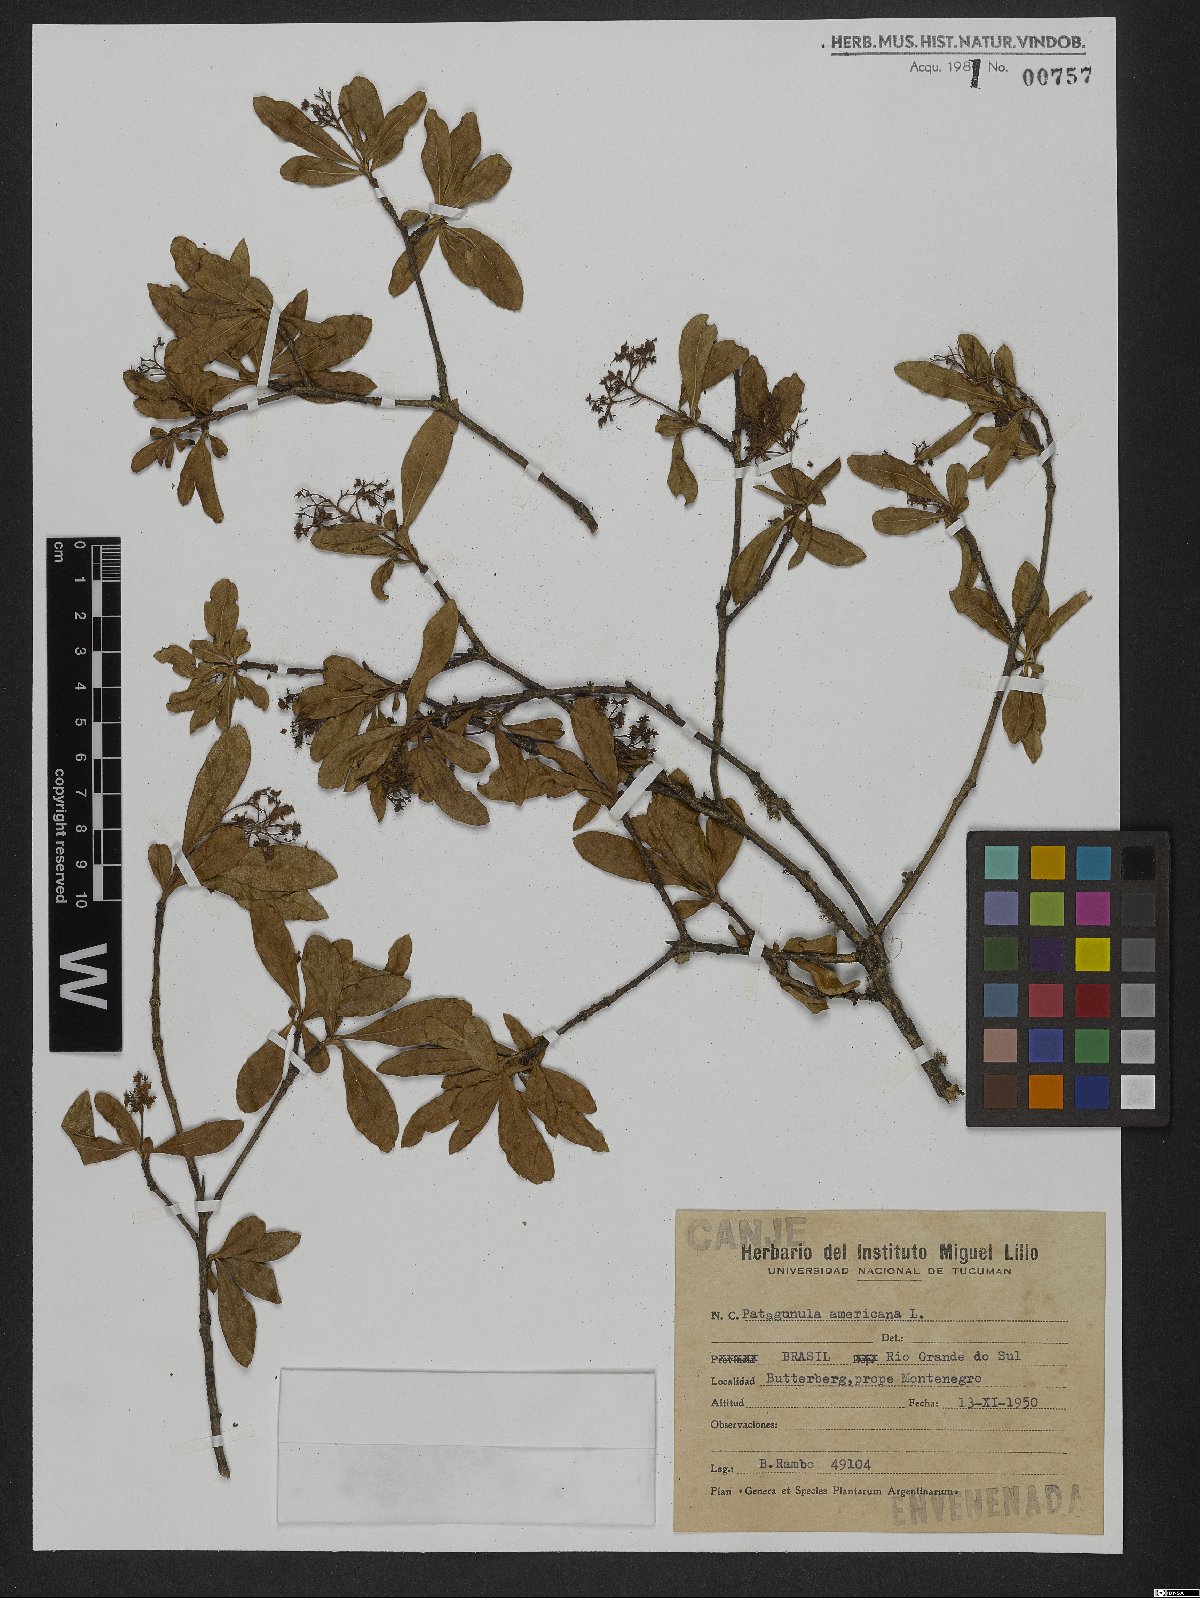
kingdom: Plantae
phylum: Tracheophyta
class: Magnoliopsida
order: Boraginales
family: Cordiaceae
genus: Cordia
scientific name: Cordia americana
